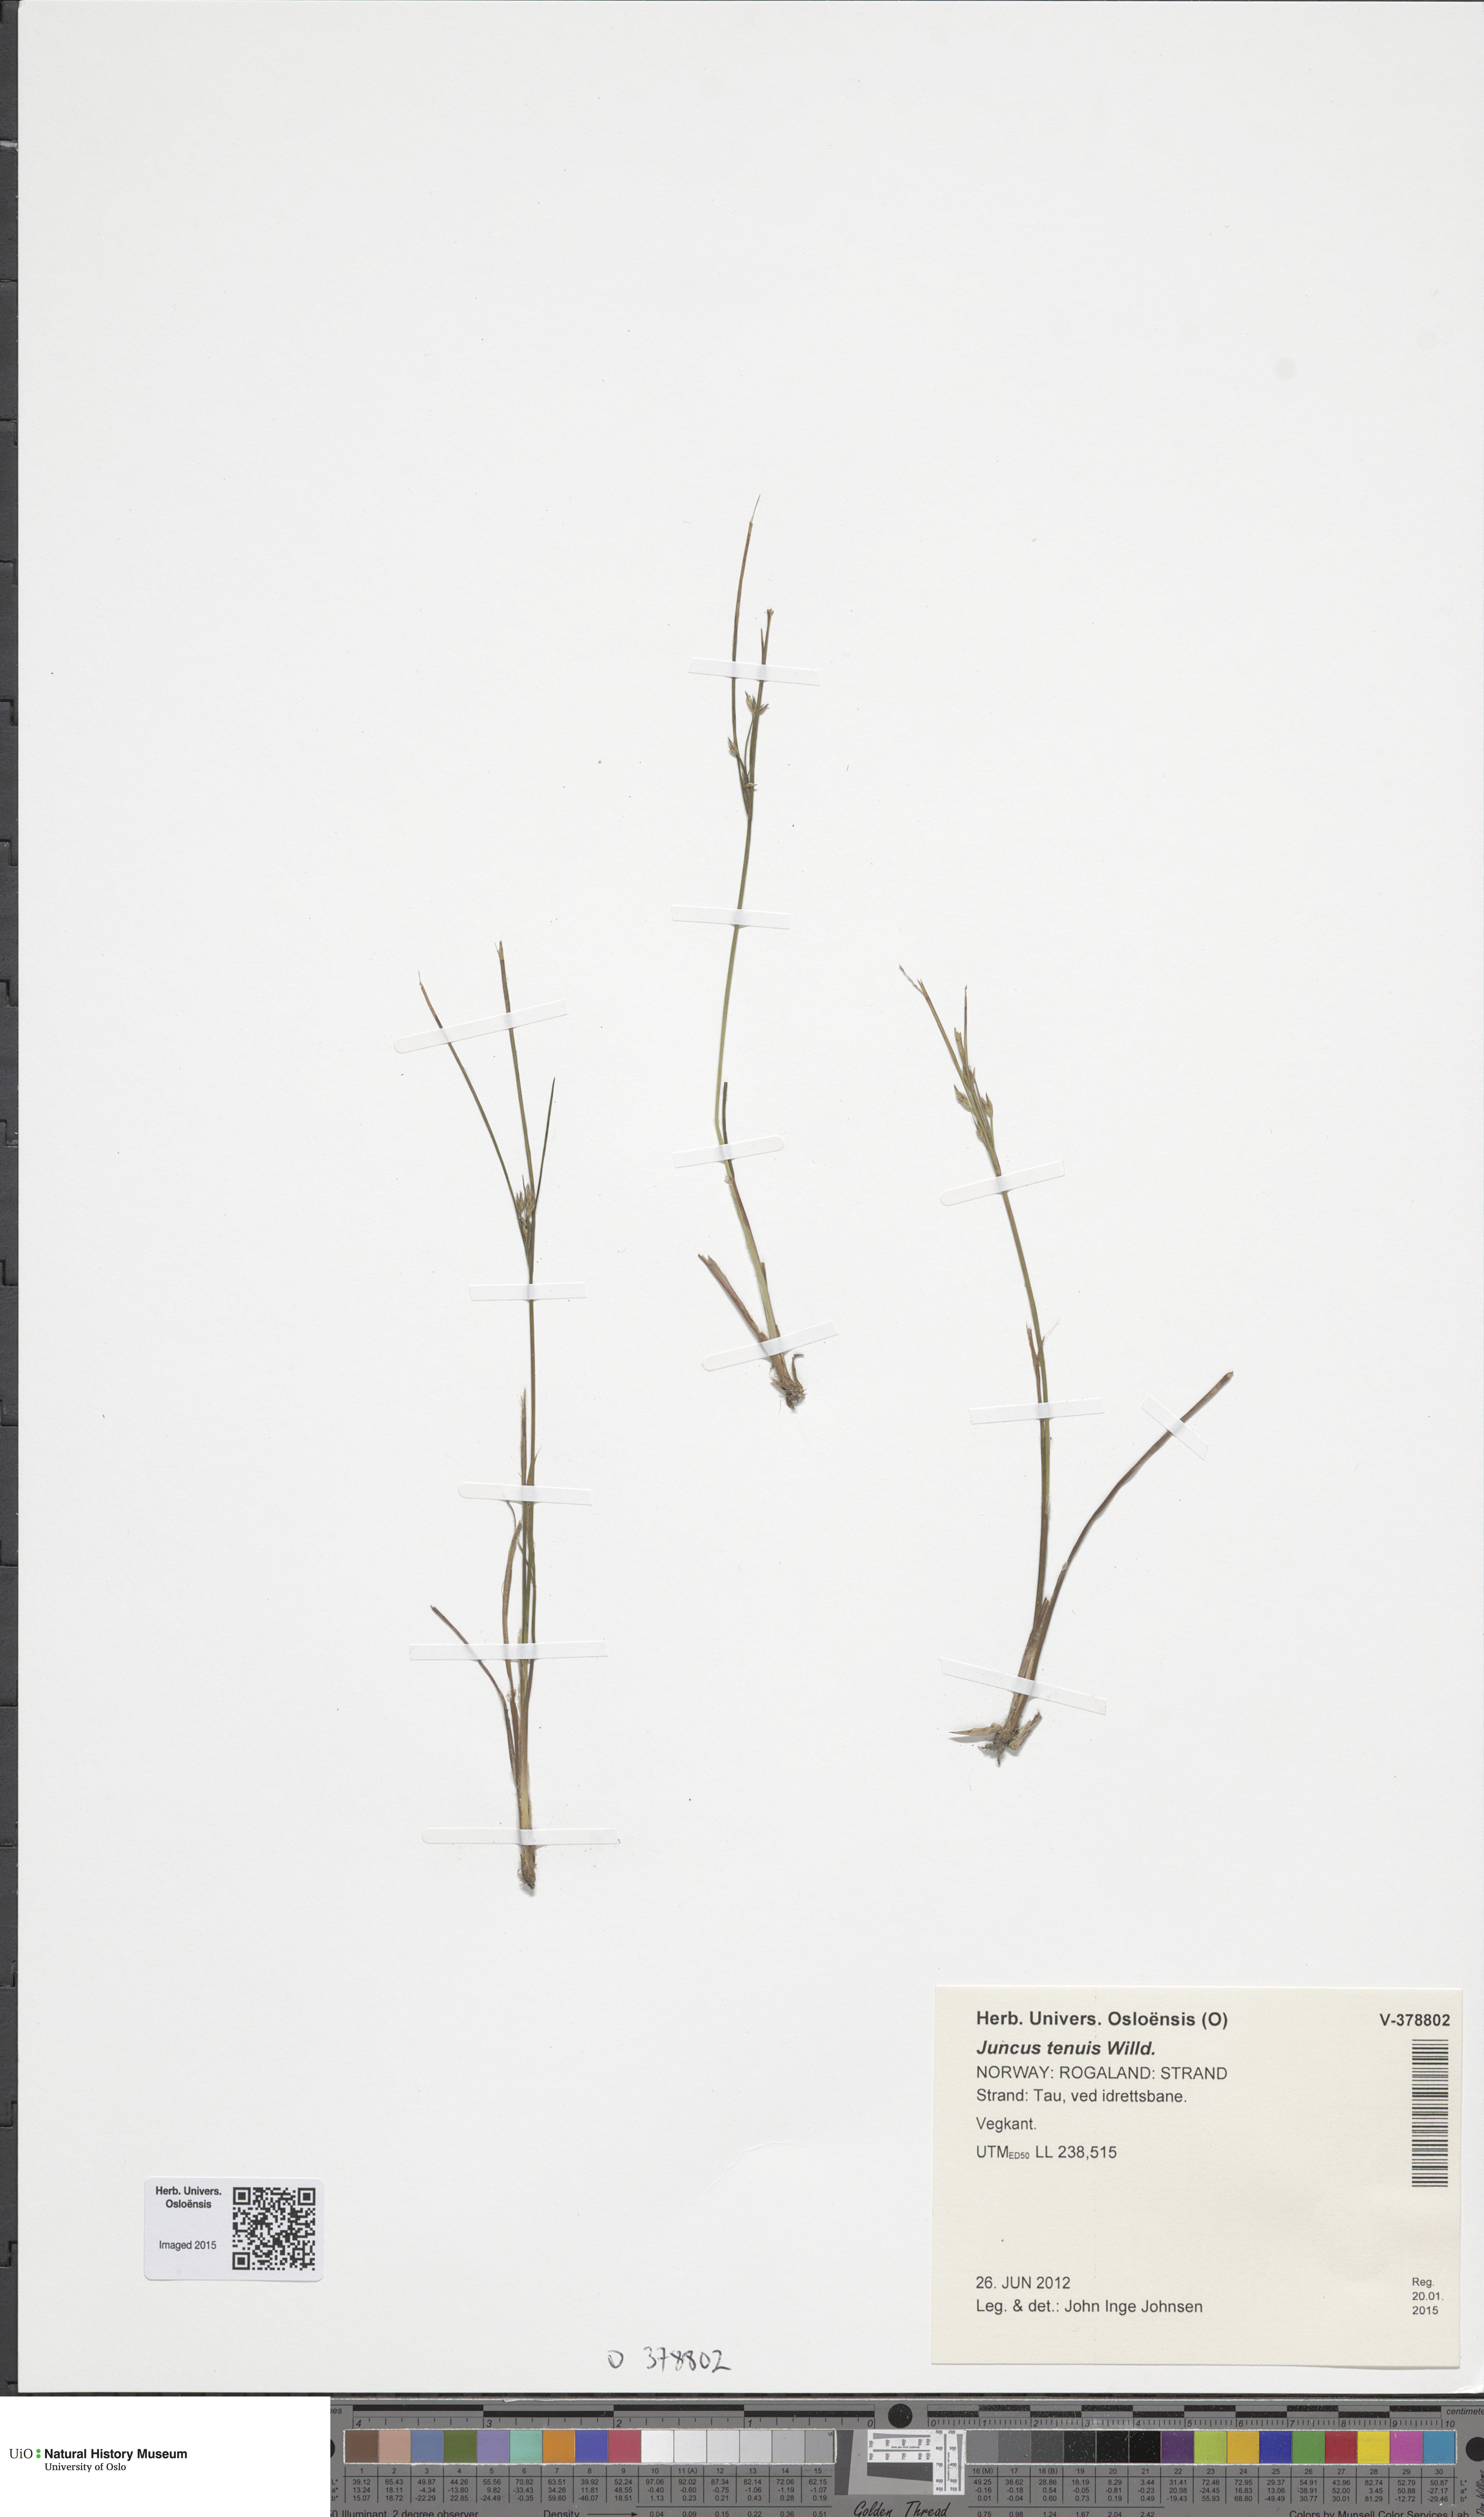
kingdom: Plantae
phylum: Tracheophyta
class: Liliopsida
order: Poales
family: Juncaceae
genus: Juncus
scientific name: Juncus tenuis
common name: Slender rush
